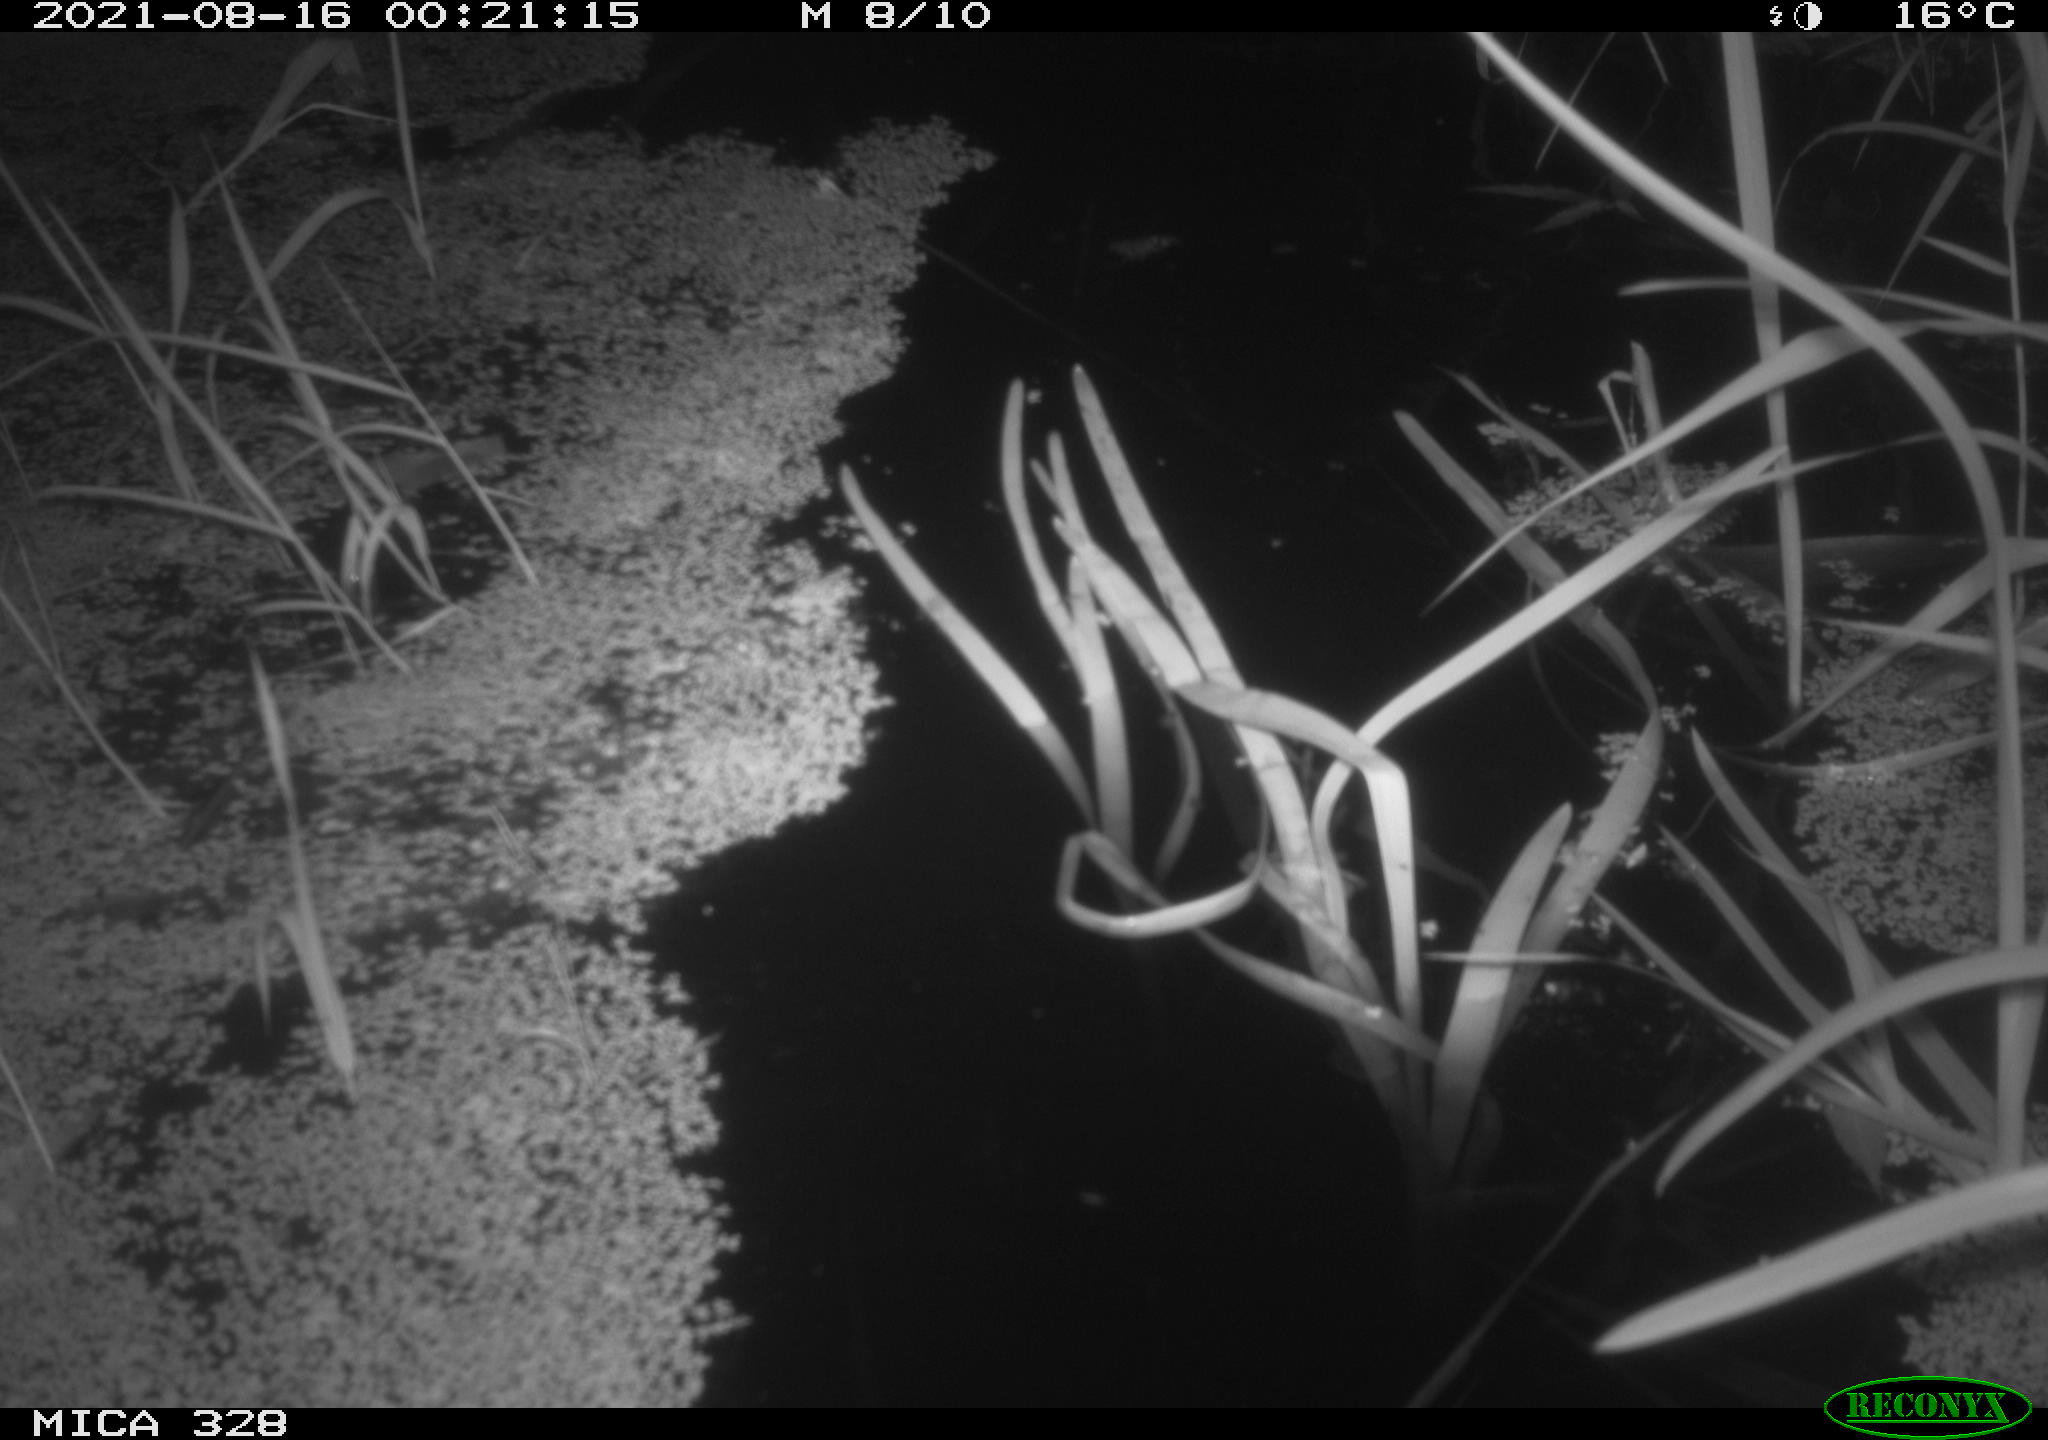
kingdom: Animalia
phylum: Chordata
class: Mammalia
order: Rodentia
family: Cricetidae
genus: Ondatra
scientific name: Ondatra zibethicus
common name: Muskrat
